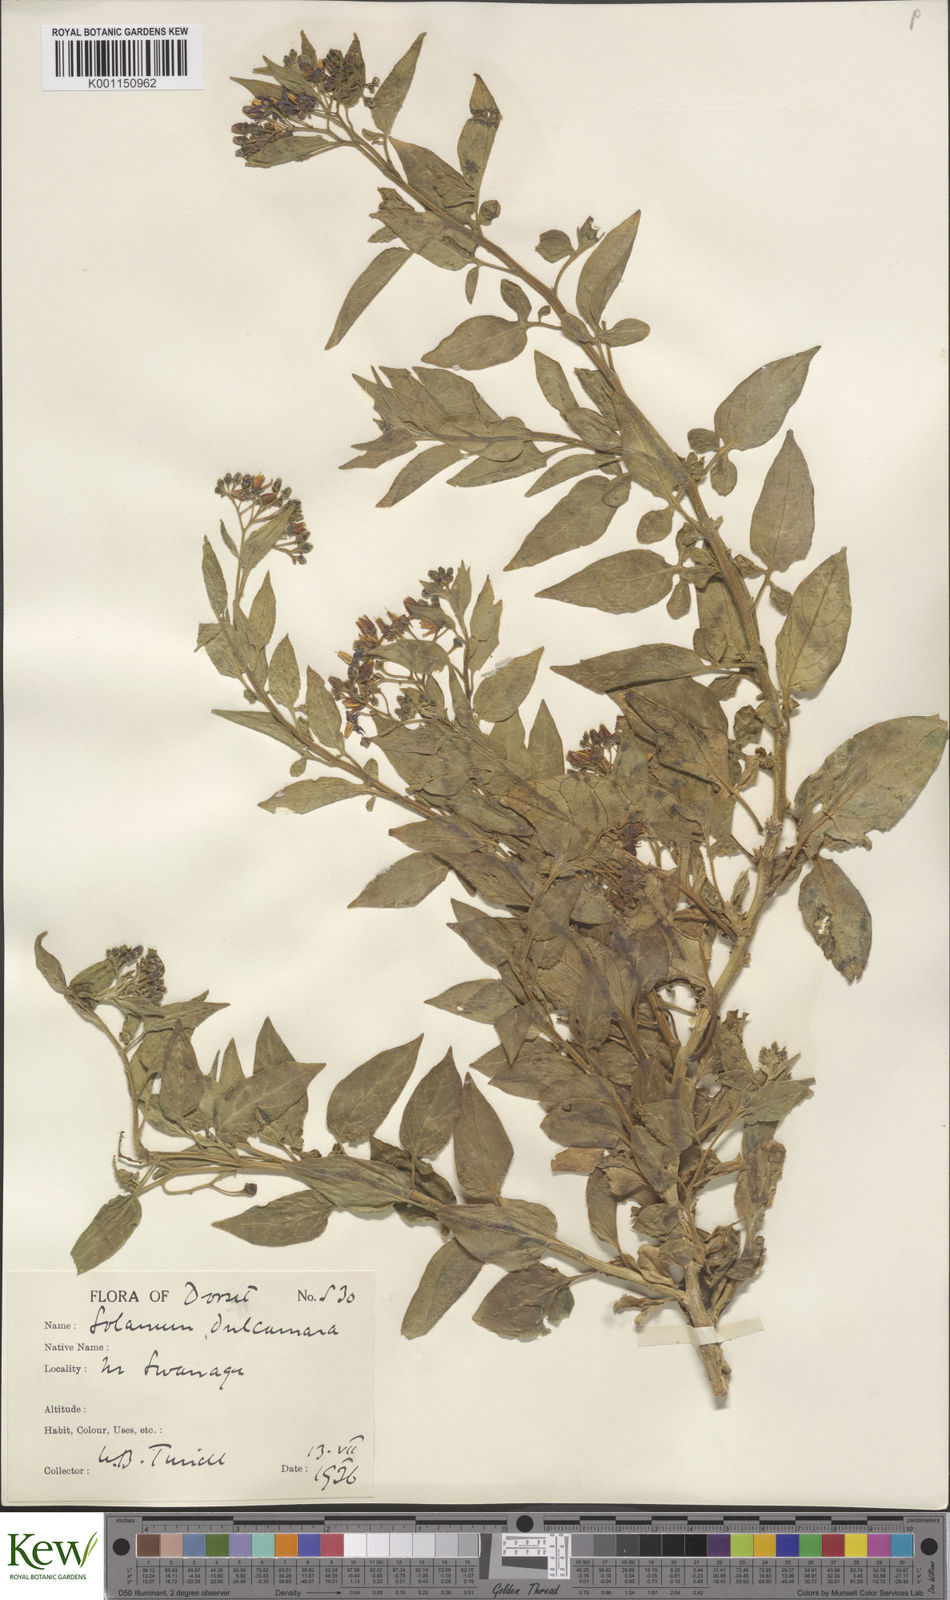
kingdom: Plantae
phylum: Tracheophyta
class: Magnoliopsida
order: Solanales
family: Solanaceae
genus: Solanum
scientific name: Solanum dulcamara
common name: Climbing nightshade
